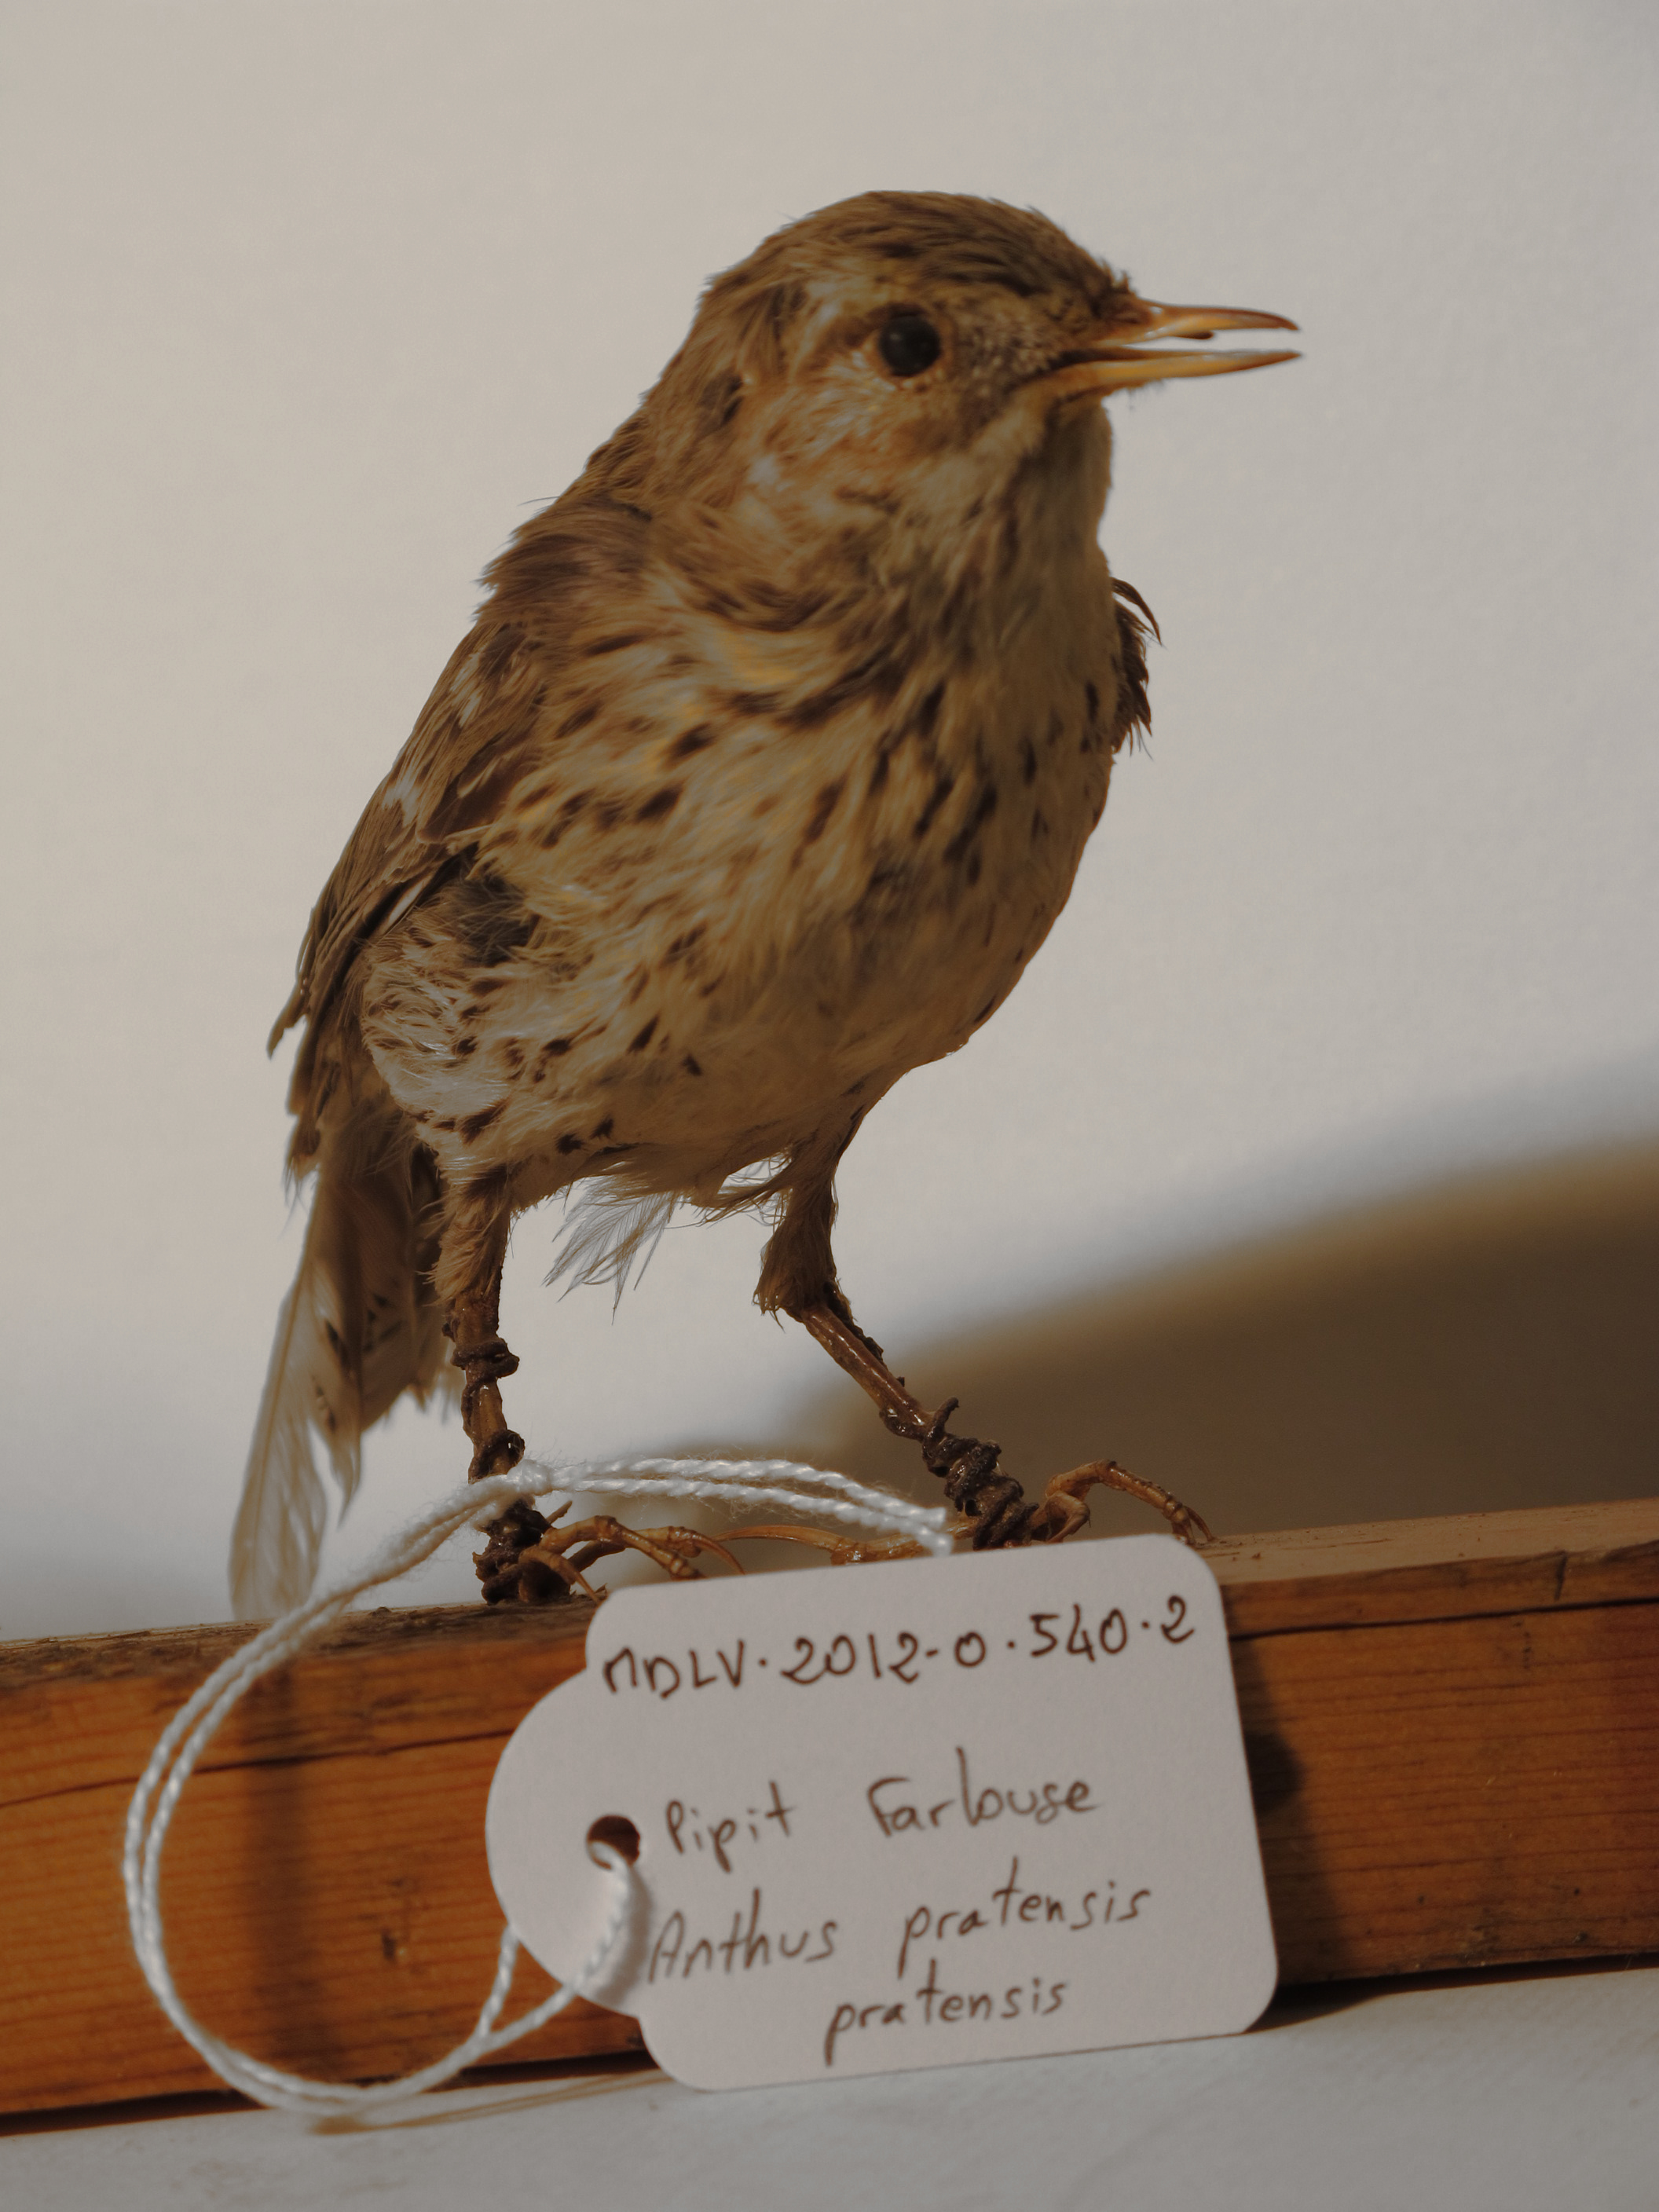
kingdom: Animalia
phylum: Chordata
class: Aves
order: Passeriformes
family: Motacillidae
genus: Anthus
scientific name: Anthus pratensis
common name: Meadow Pipit
